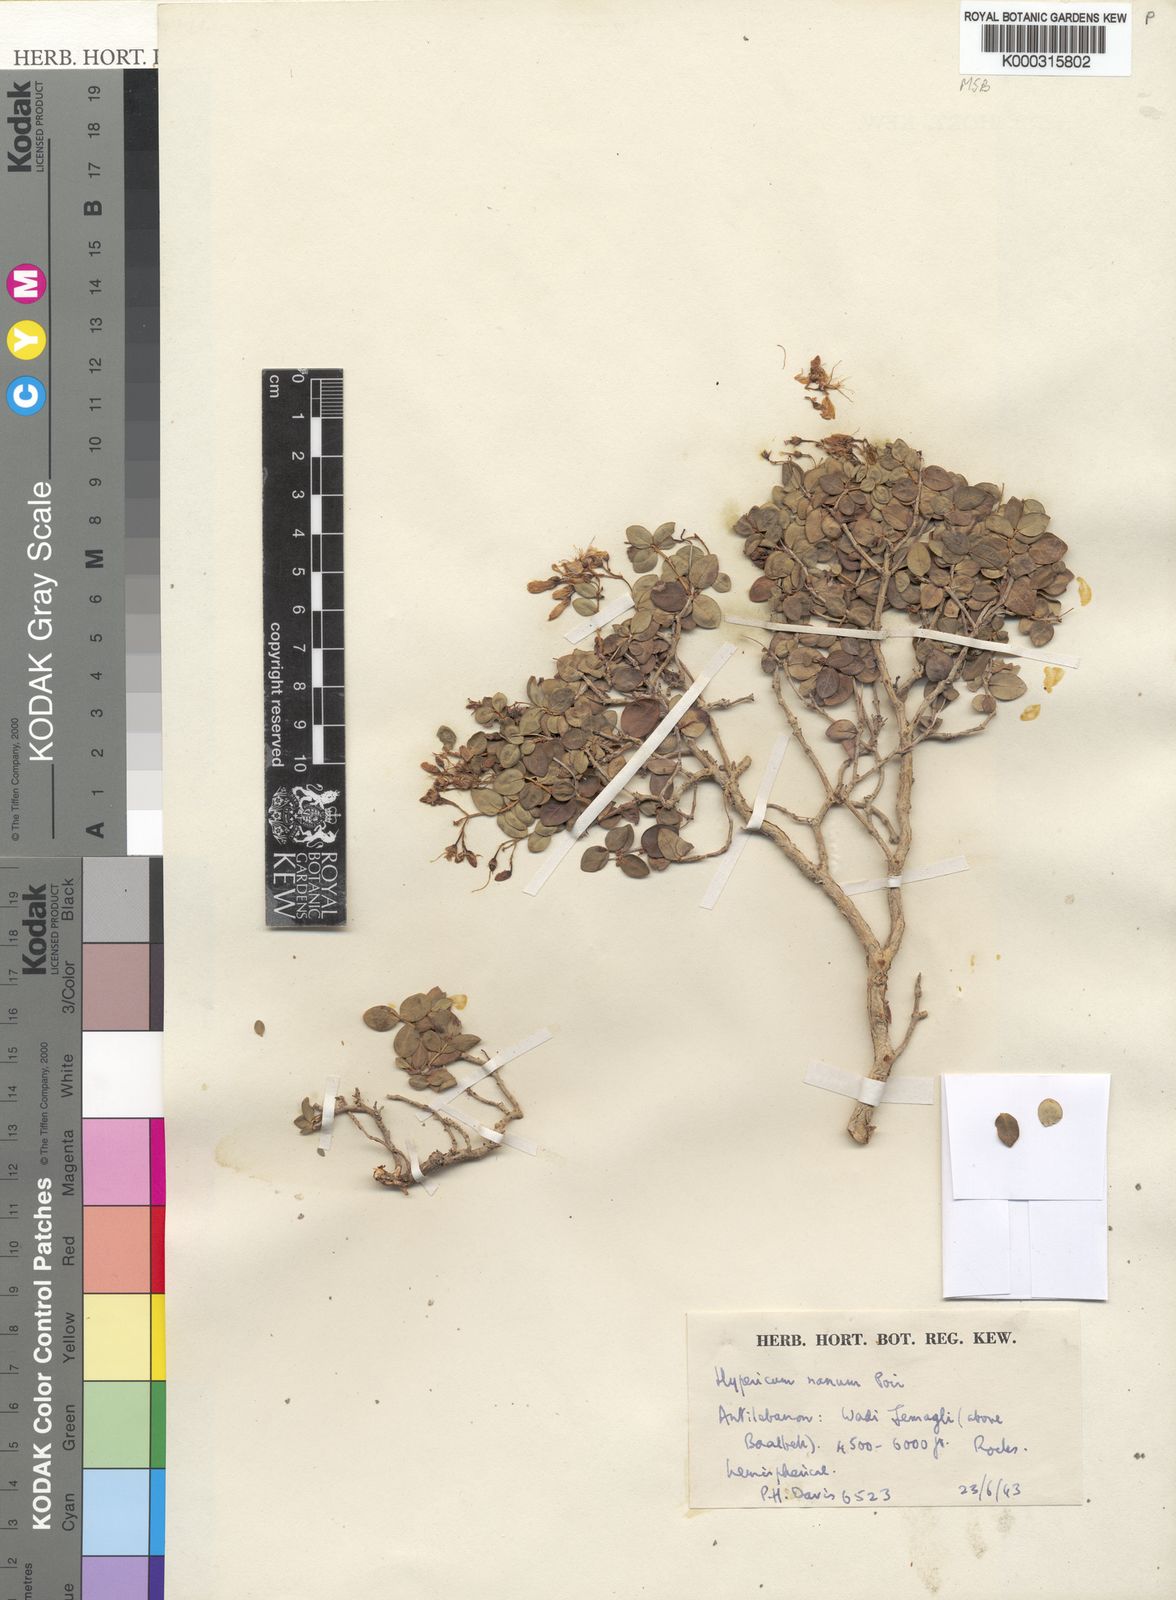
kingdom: Plantae
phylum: Tracheophyta
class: Magnoliopsida
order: Malpighiales
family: Hypericaceae
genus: Hypericum
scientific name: Hypericum nanum
